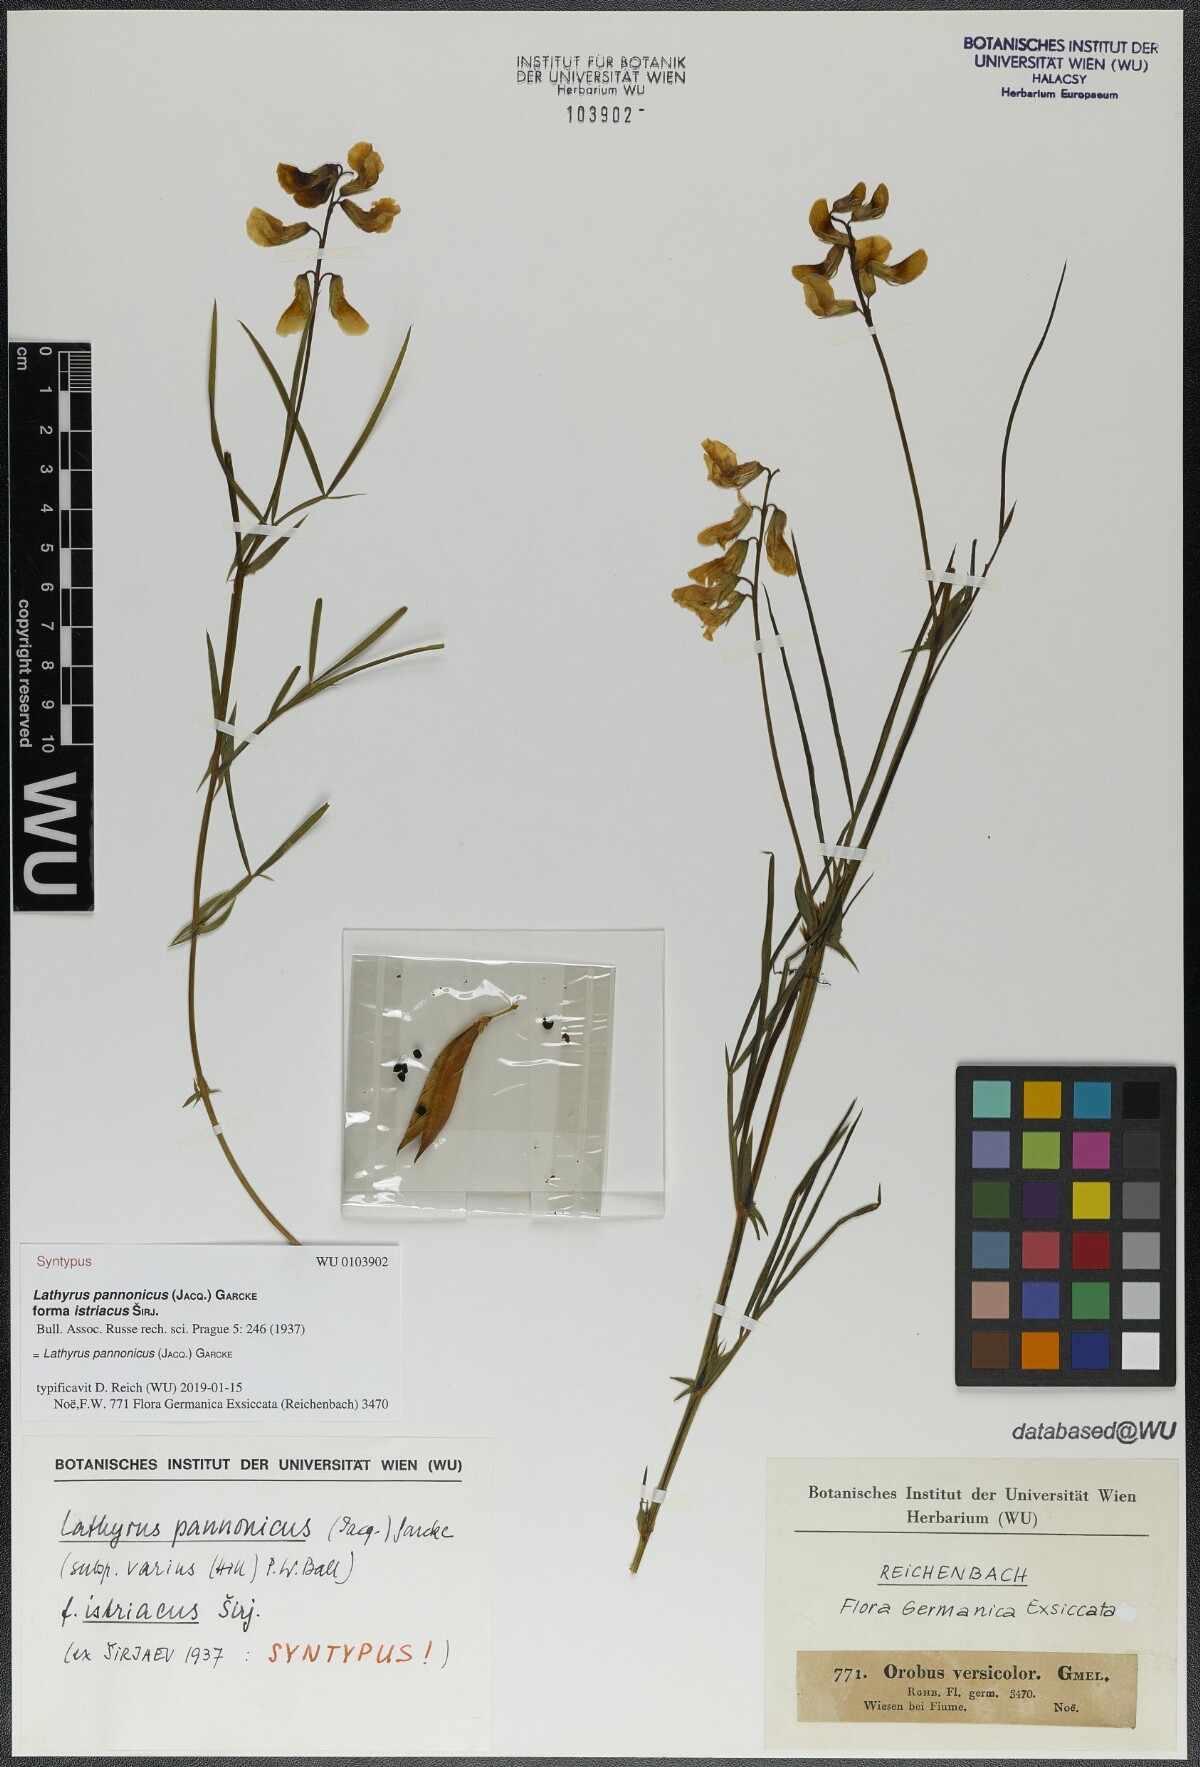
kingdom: Plantae
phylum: Tracheophyta
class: Magnoliopsida
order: Fabales
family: Fabaceae
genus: Lathyrus
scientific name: Lathyrus pannonicus
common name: Pea
